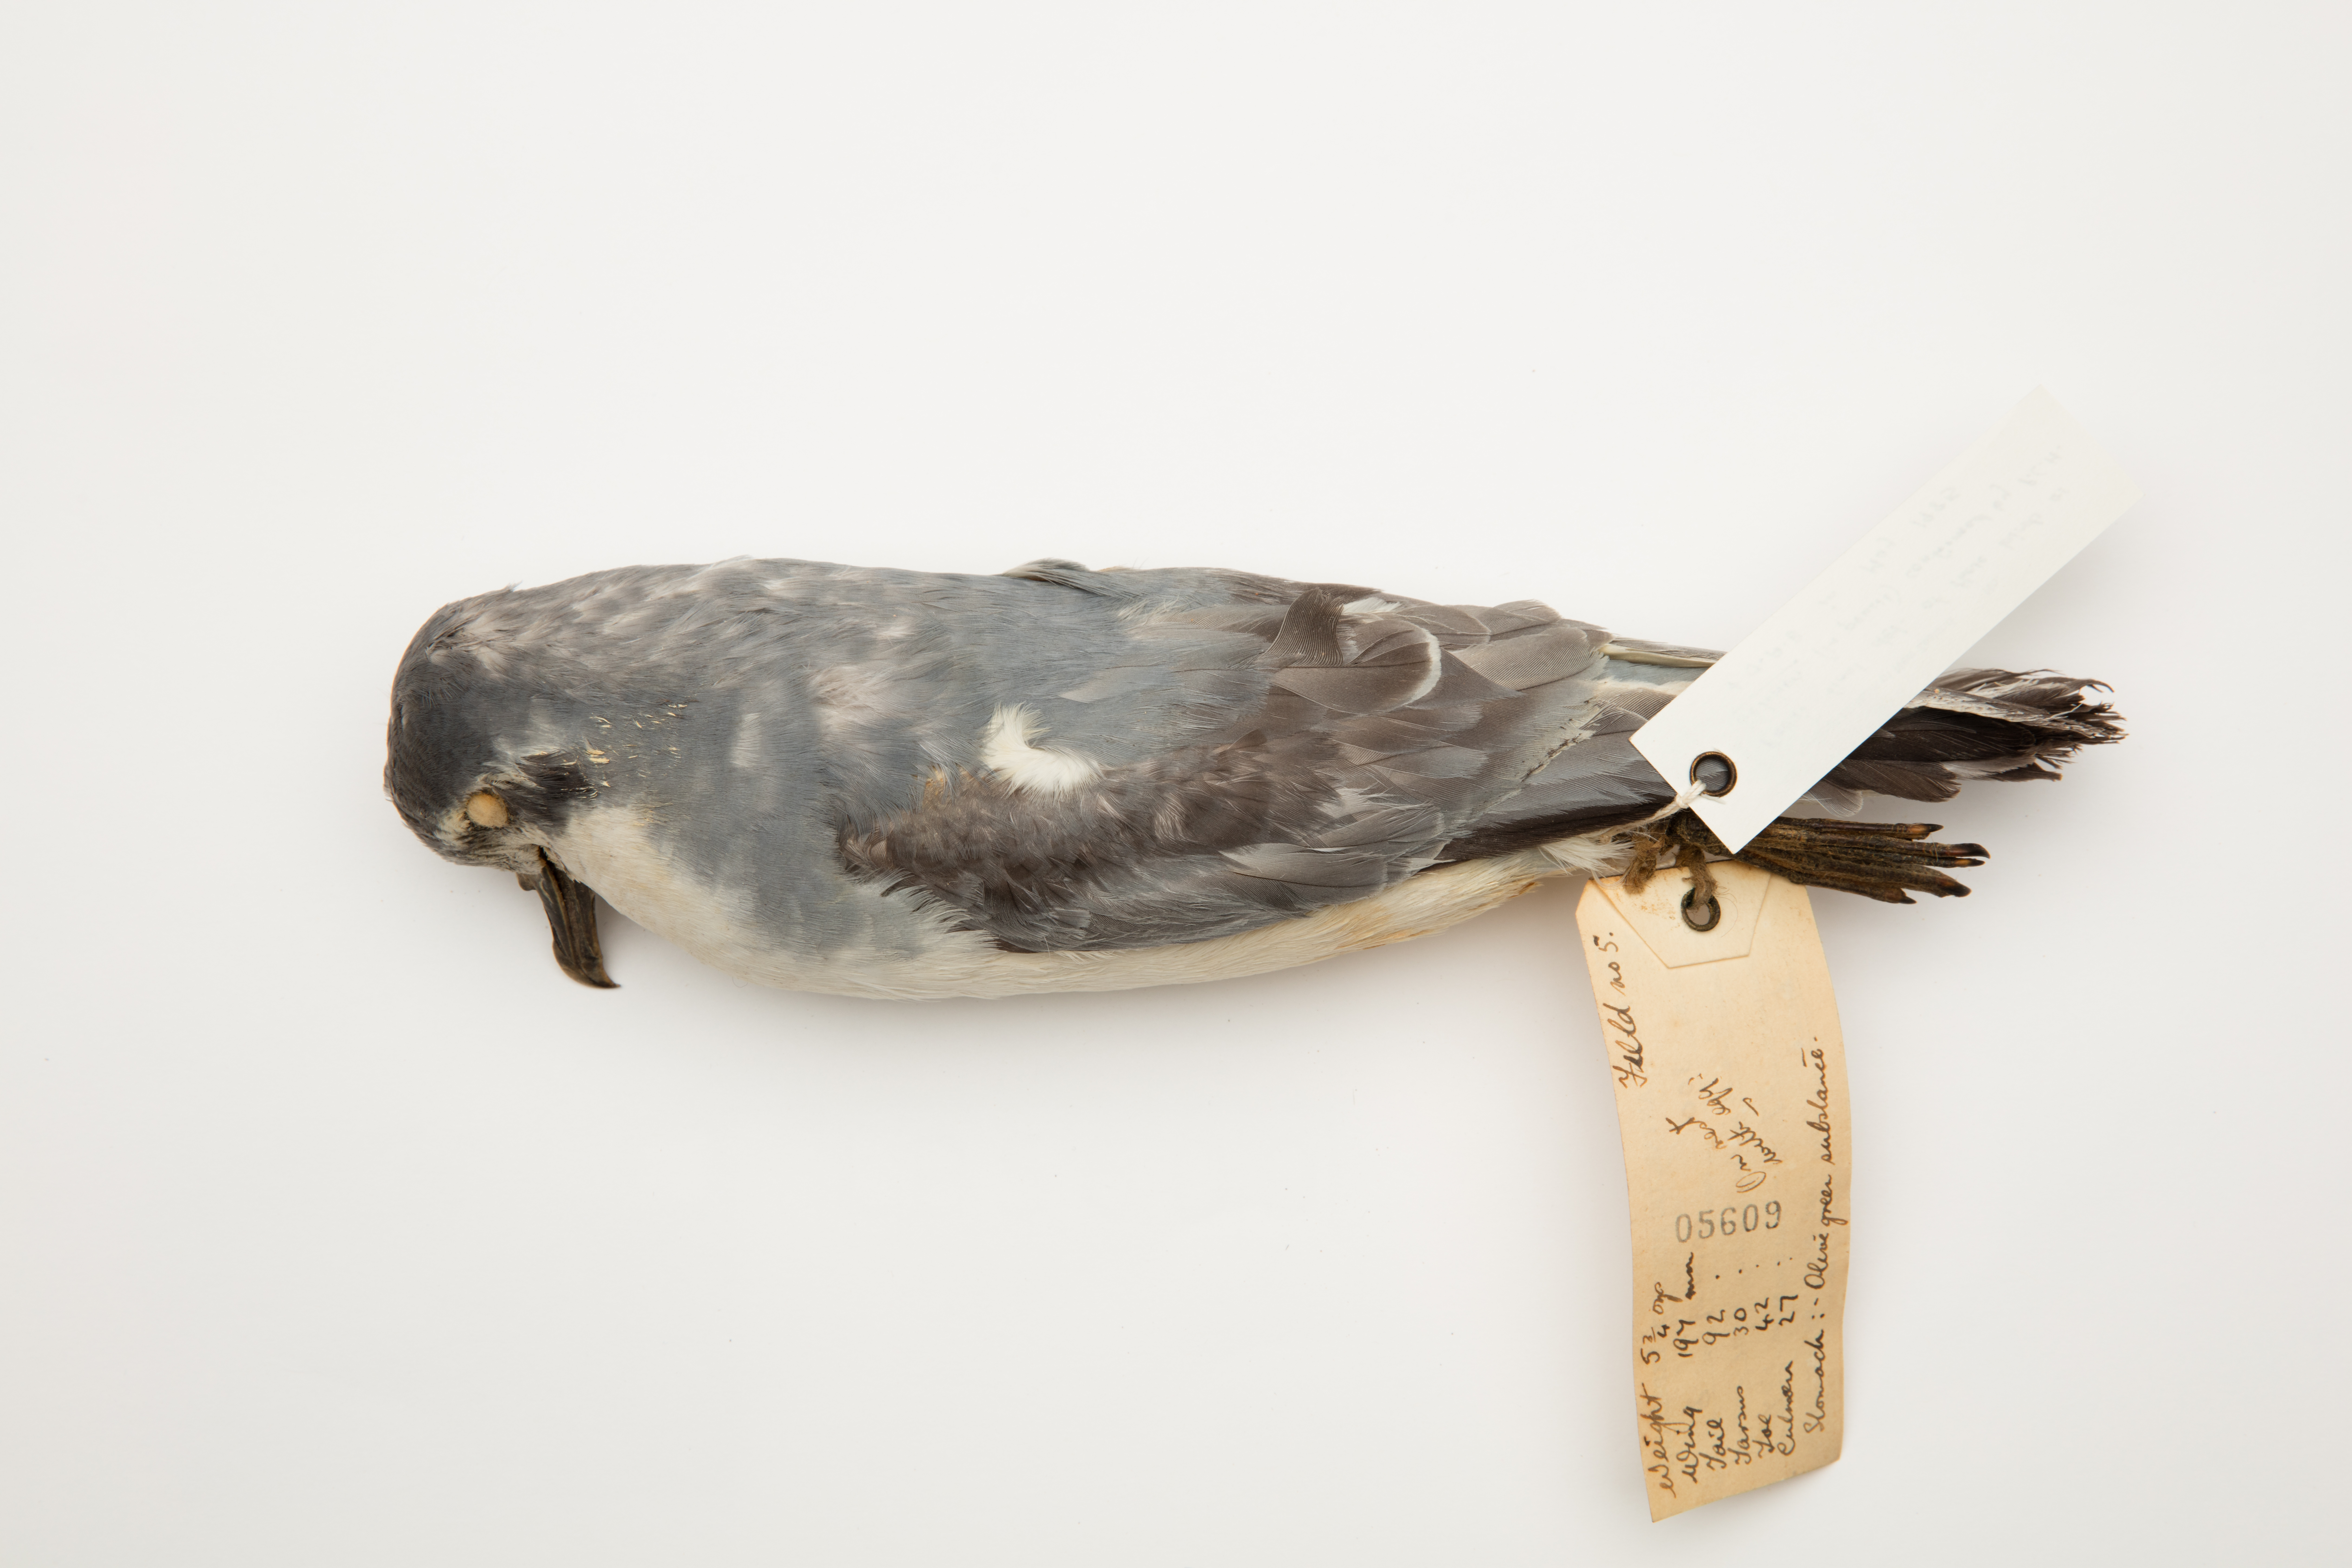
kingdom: Animalia
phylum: Chordata
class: Aves
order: Procellariiformes
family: Procellariidae
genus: Pachyptila
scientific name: Pachyptila belcheri
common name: Slender-billed prion
